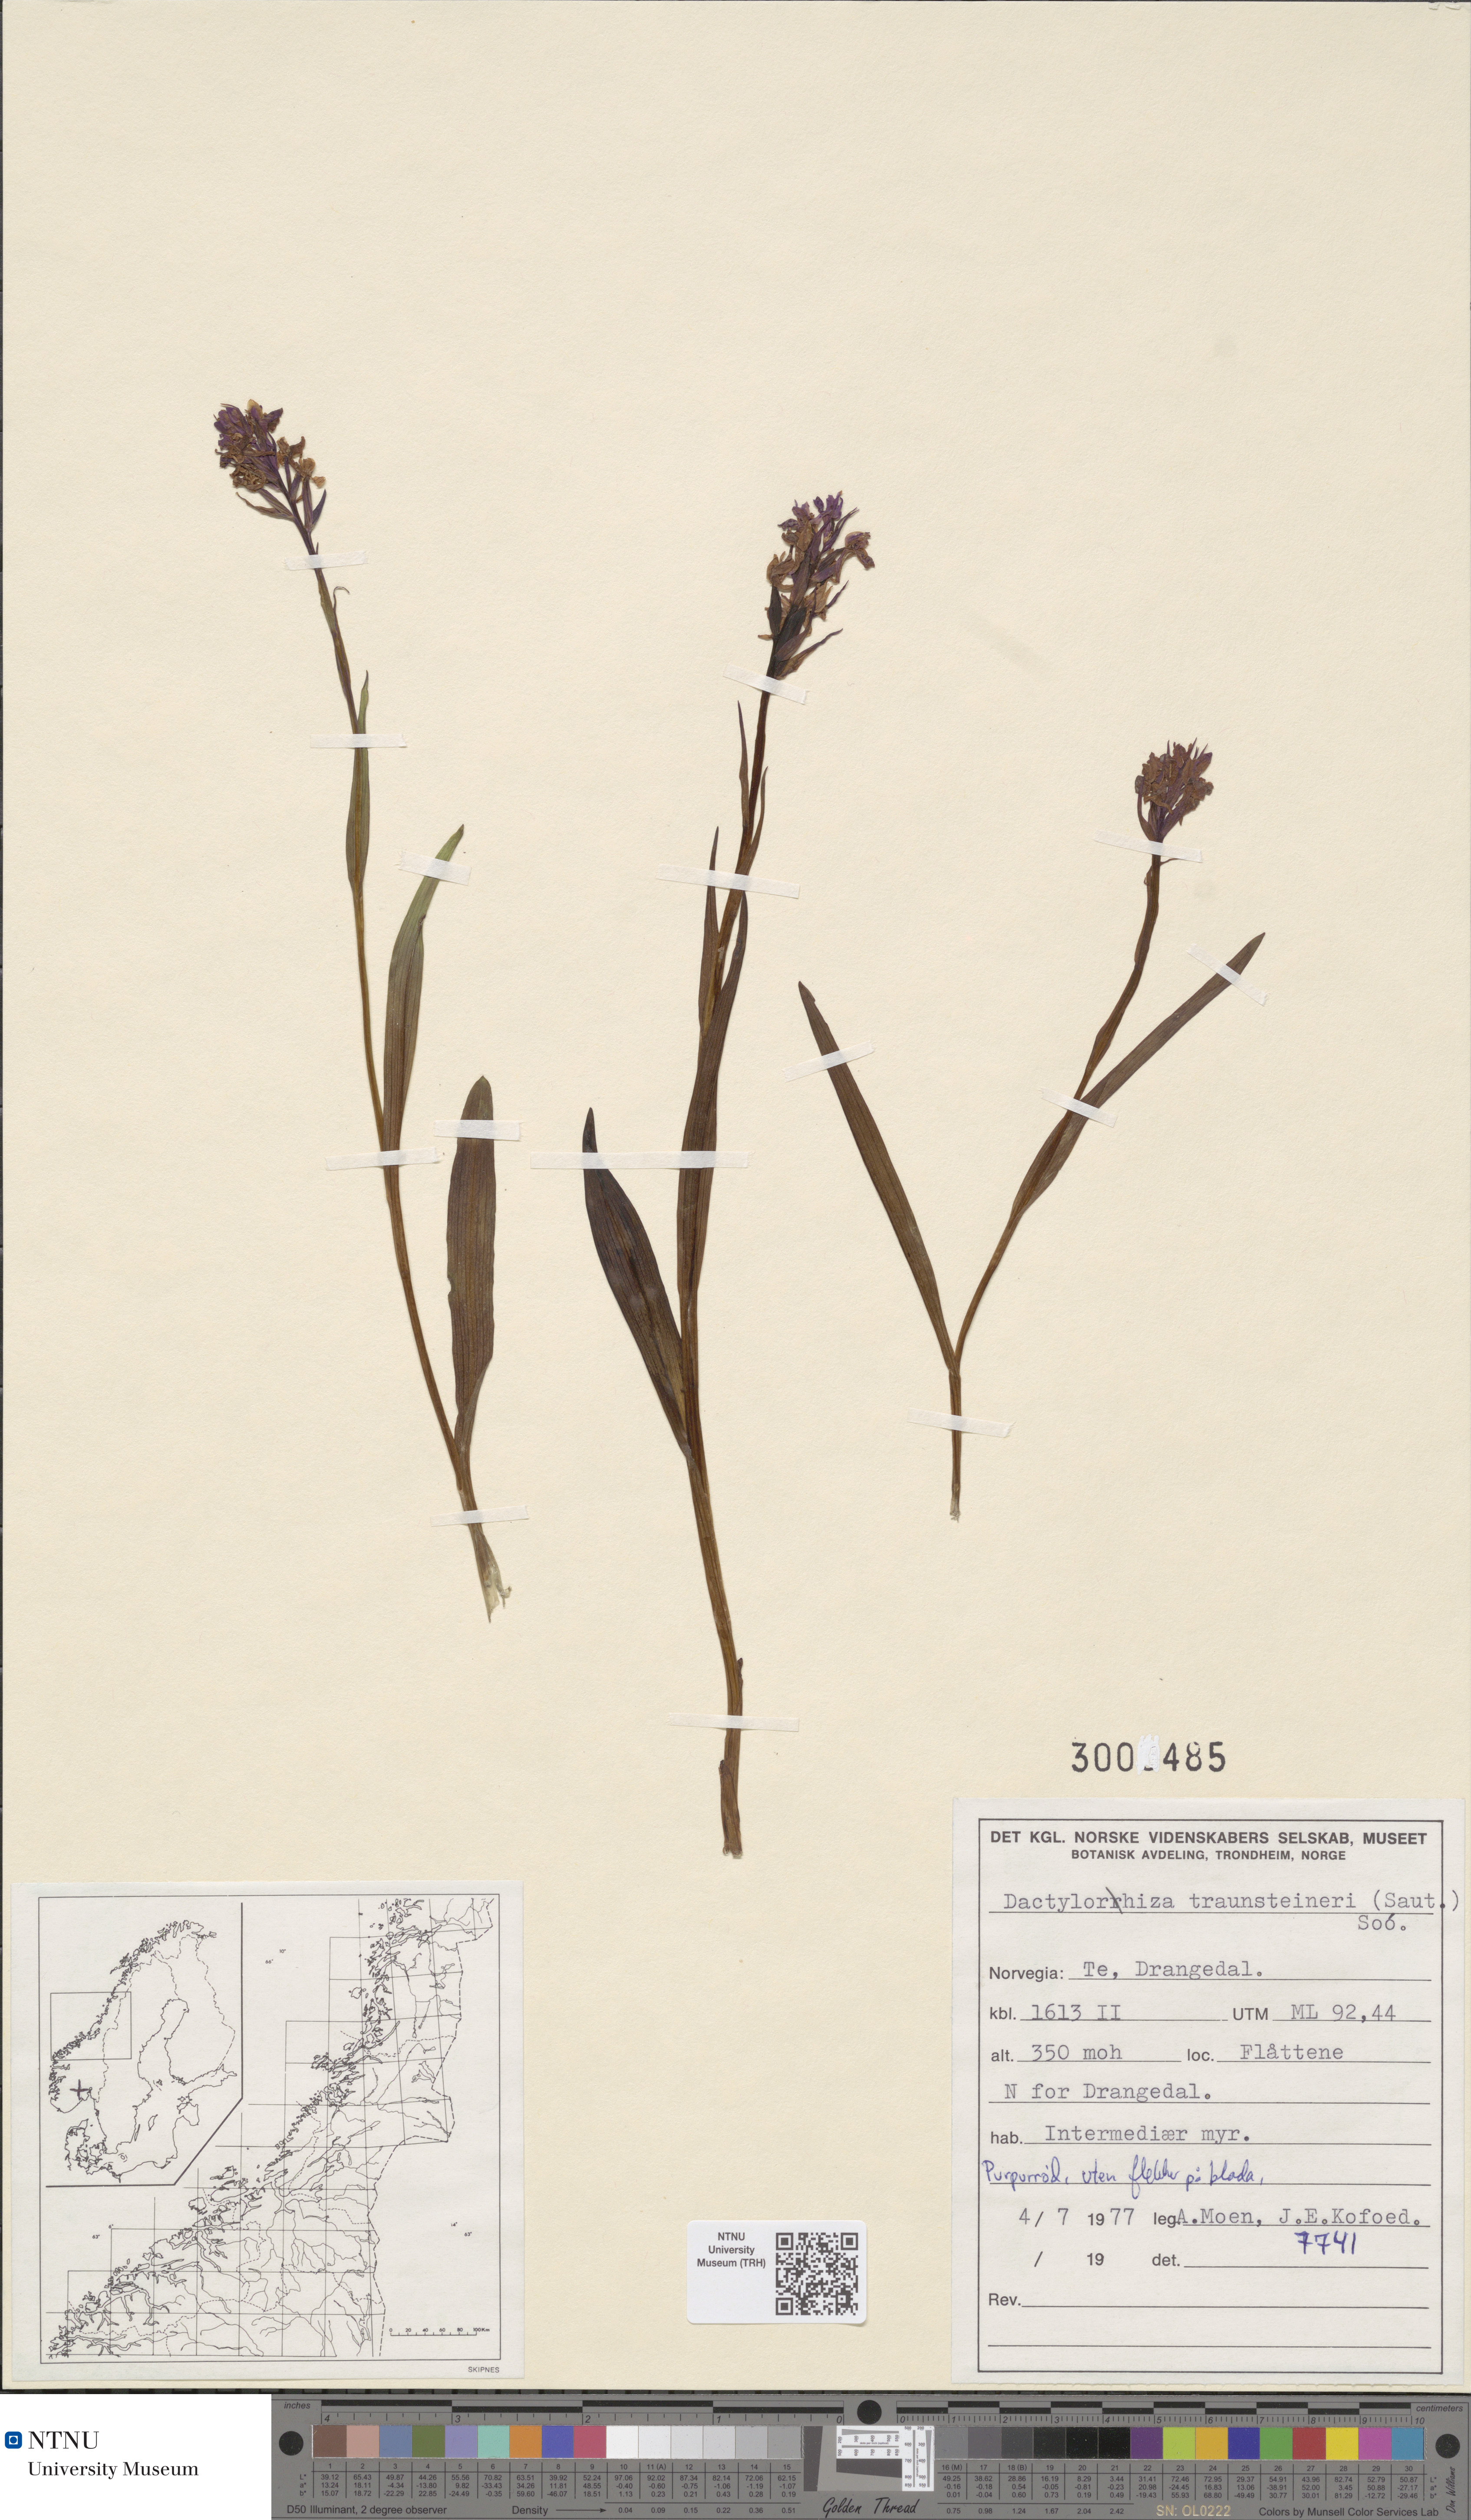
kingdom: Plantae
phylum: Tracheophyta
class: Liliopsida
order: Asparagales
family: Orchidaceae
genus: Dactylorhiza
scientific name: Dactylorhiza majalis
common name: Marsh orchid
